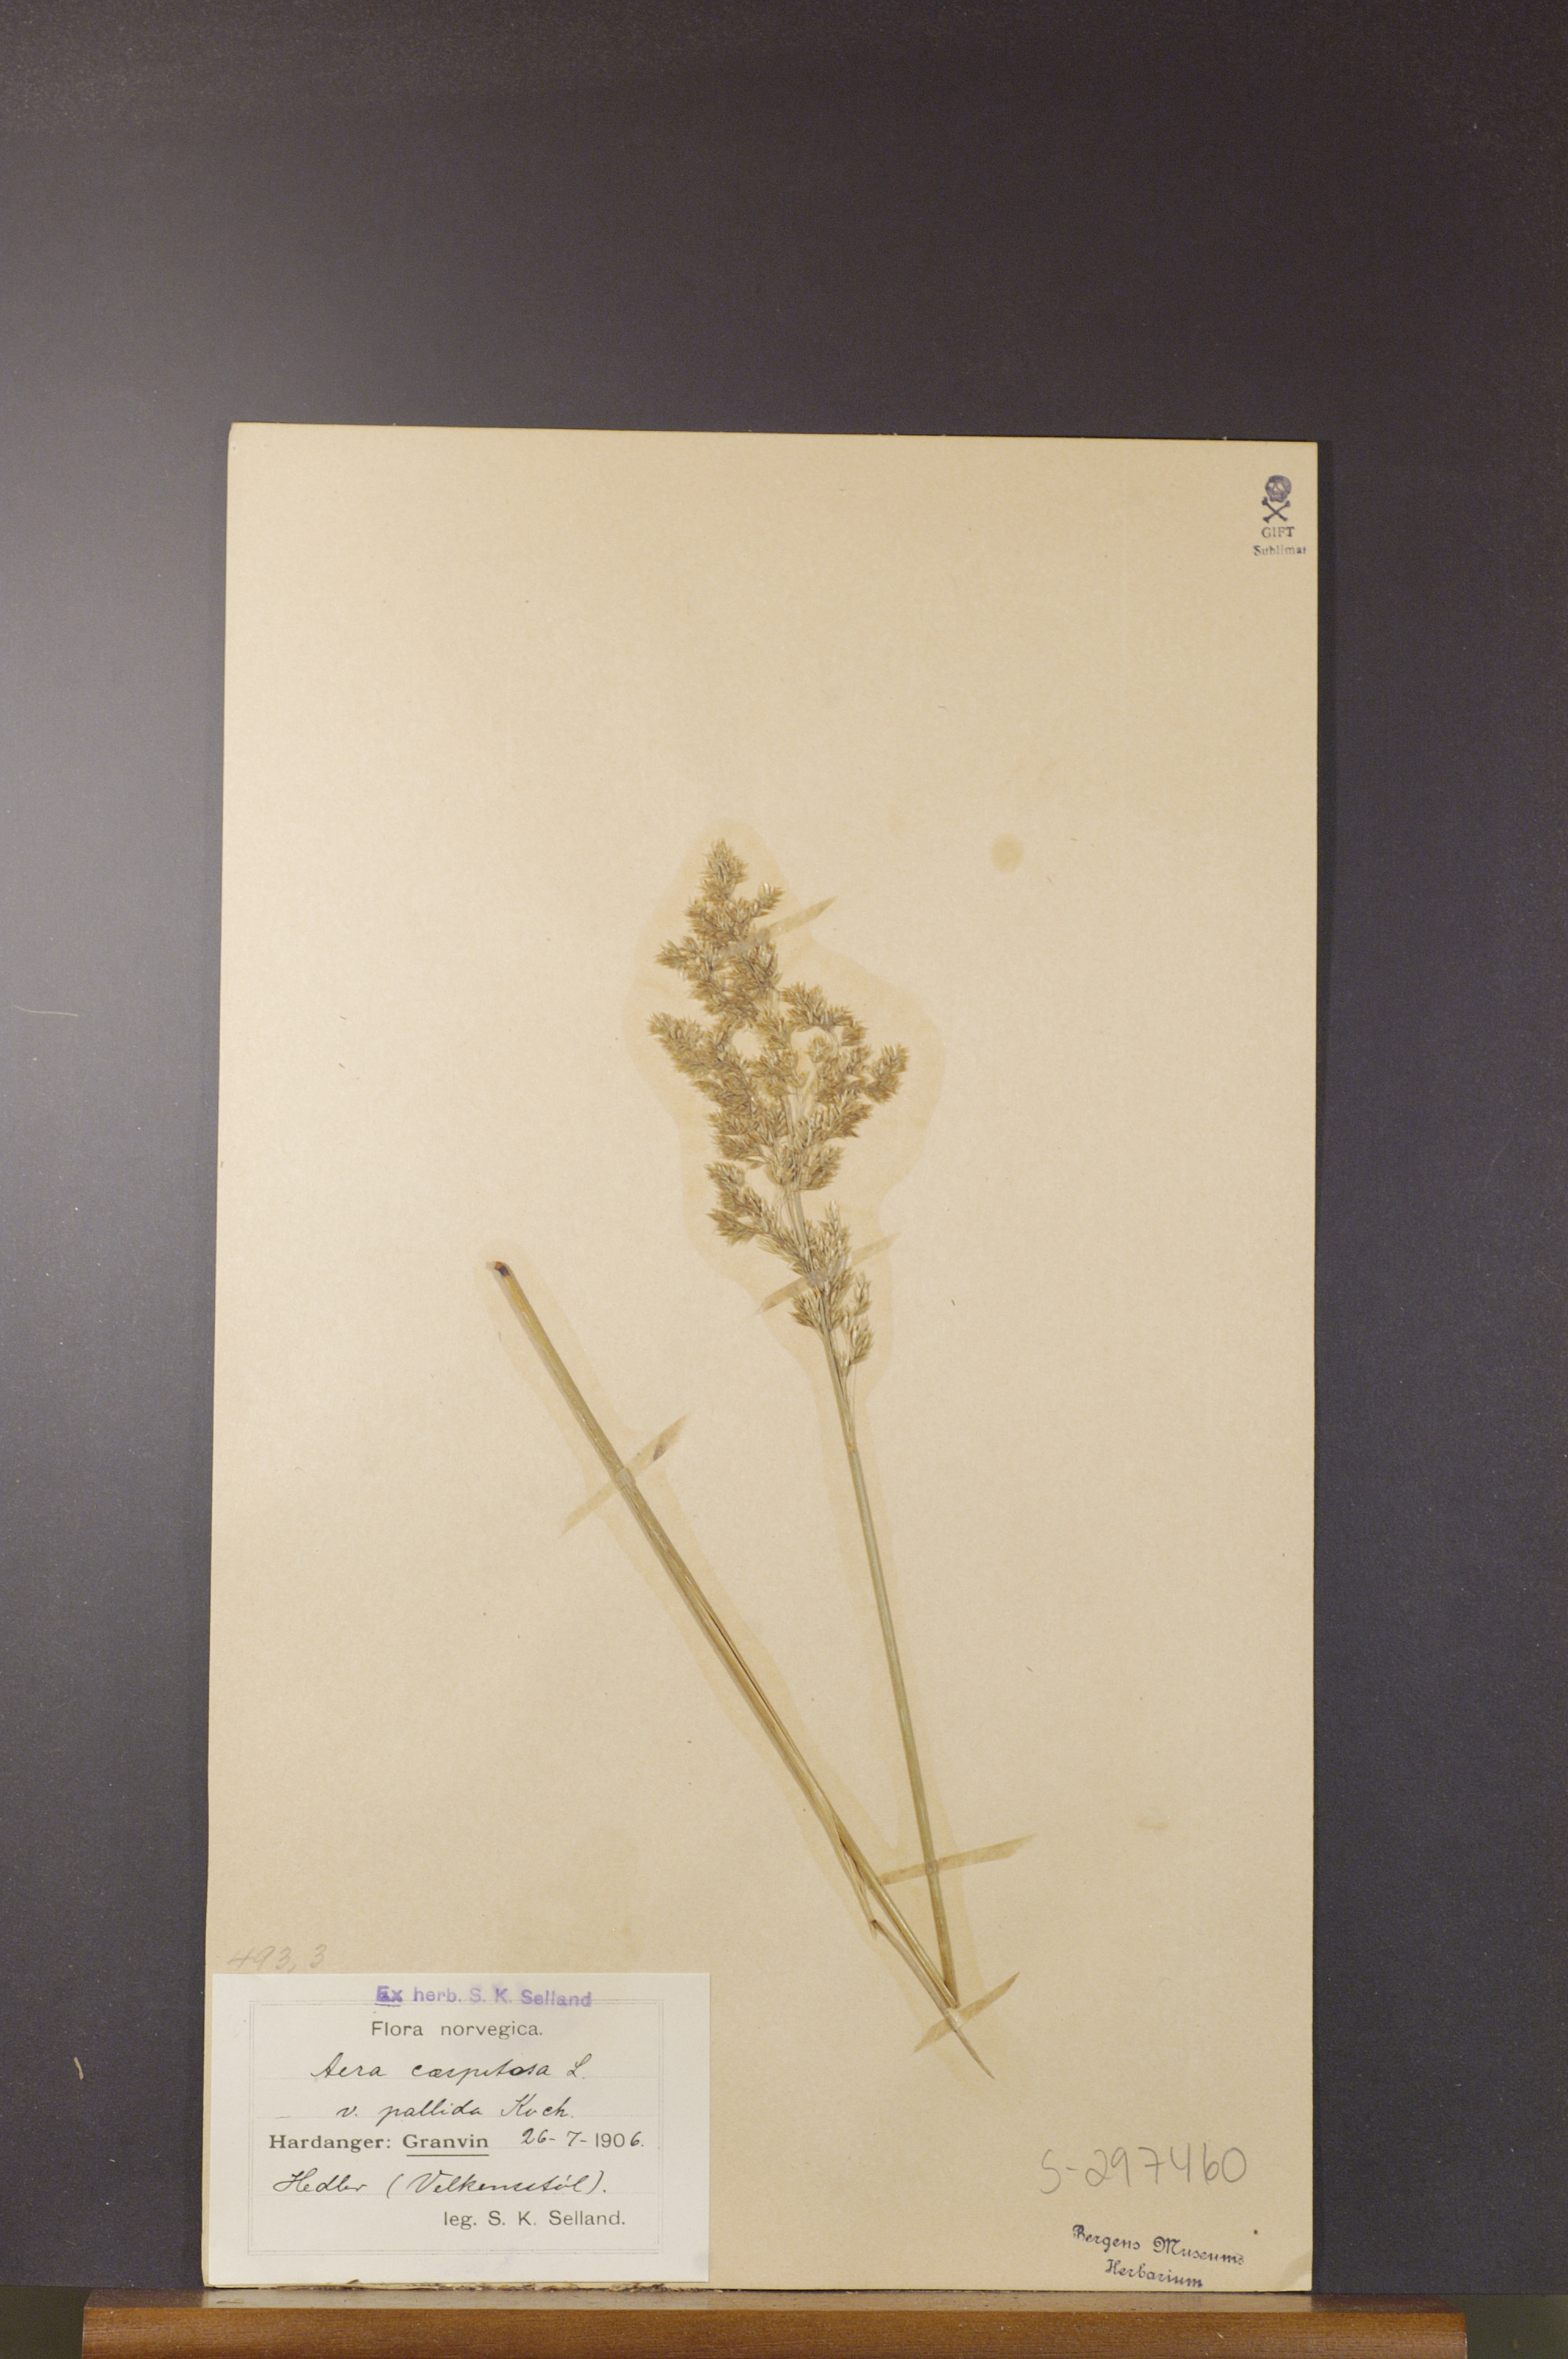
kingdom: Plantae
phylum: Tracheophyta
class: Liliopsida
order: Poales
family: Poaceae
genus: Deschampsia
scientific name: Deschampsia cespitosa
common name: Tufted hair-grass
